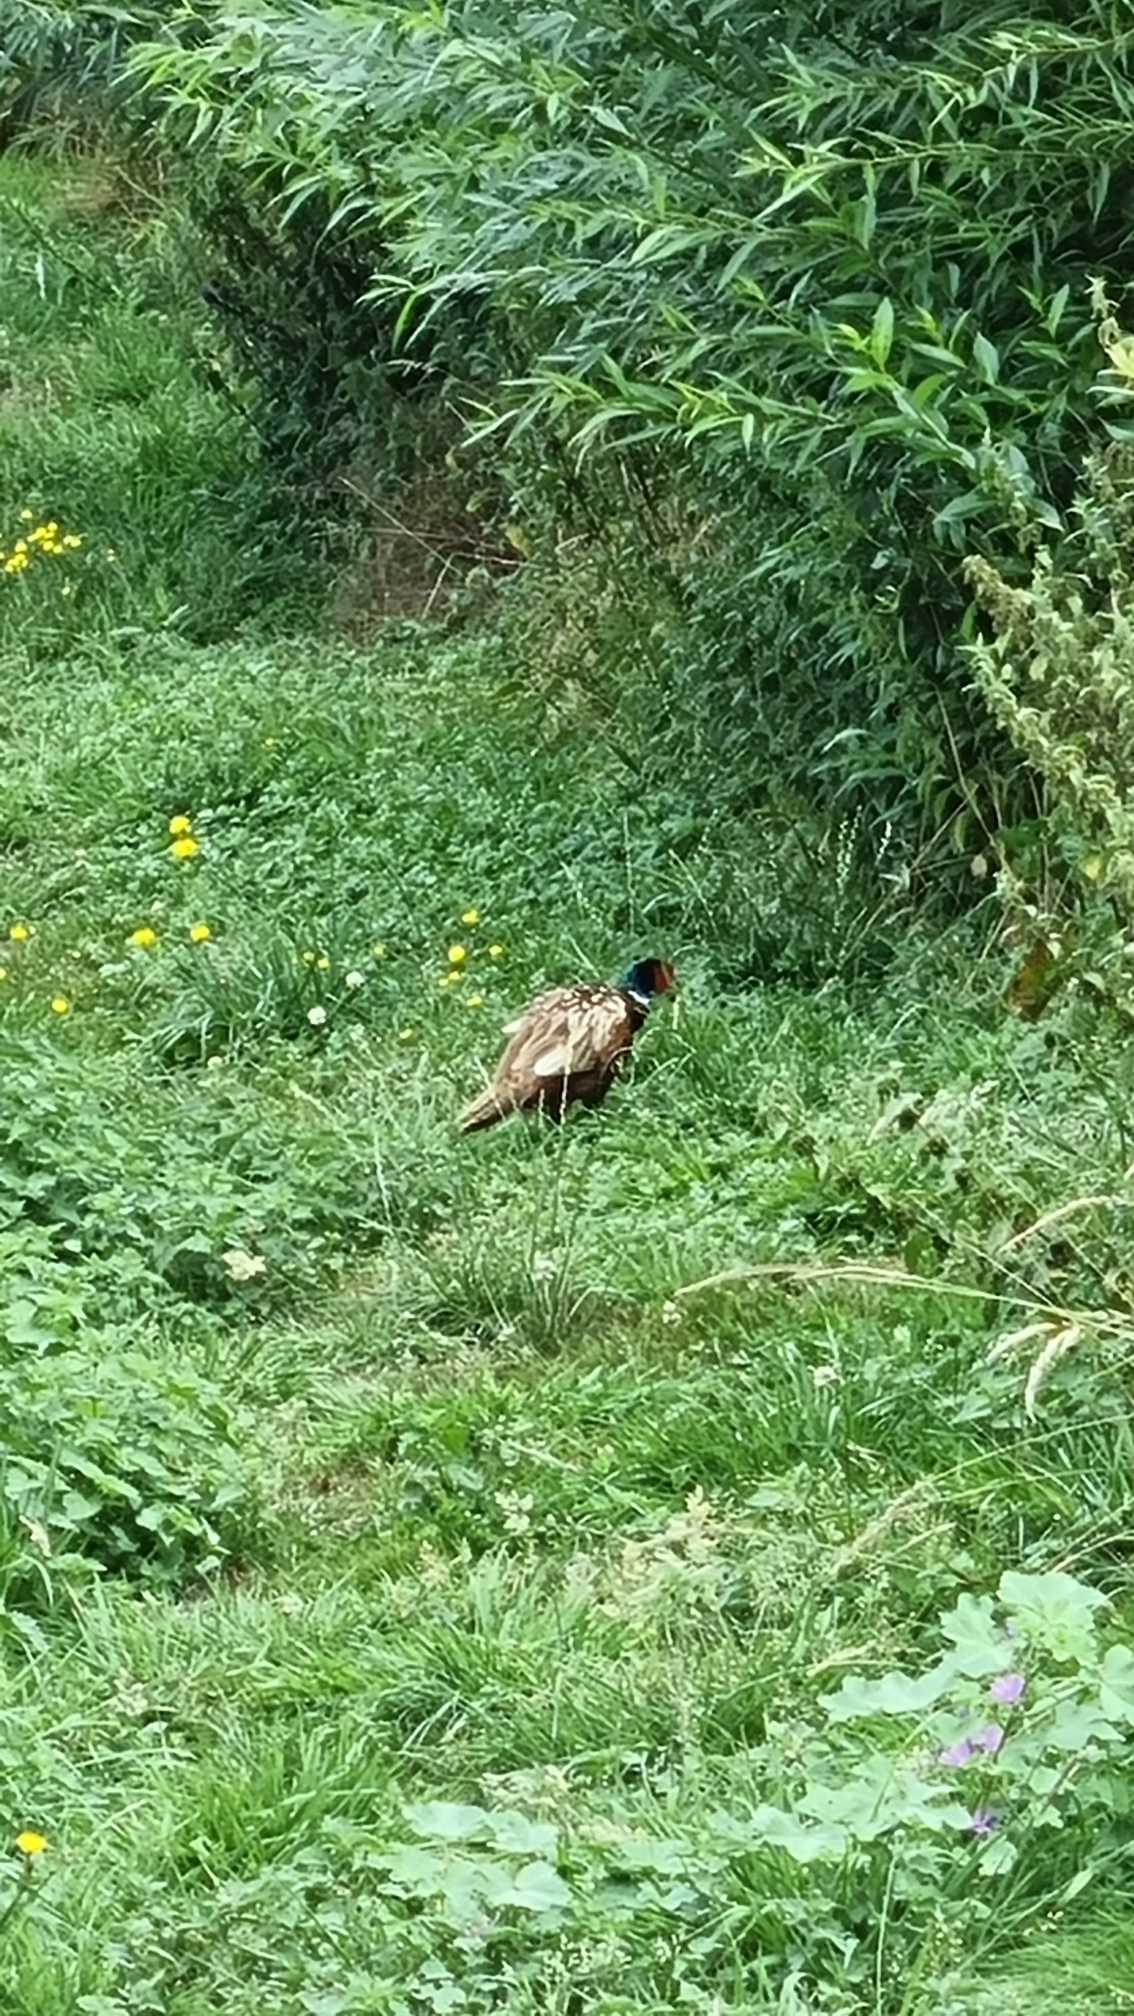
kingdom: Animalia
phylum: Chordata
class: Aves
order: Galliformes
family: Phasianidae
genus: Phasianus
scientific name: Phasianus colchicus
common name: Fasan
